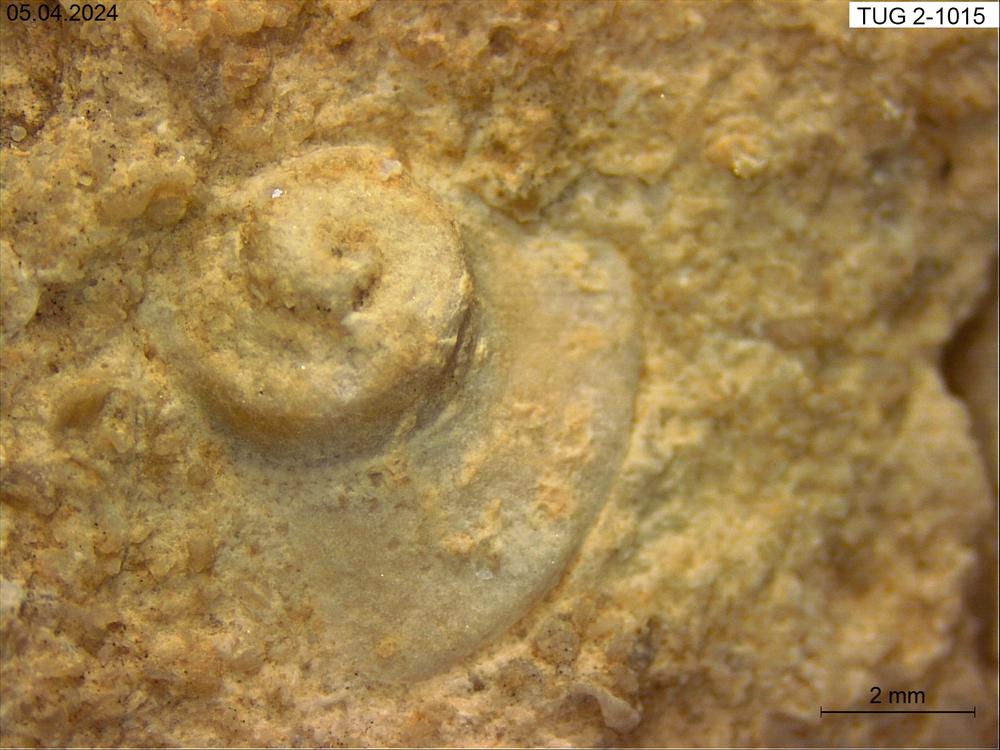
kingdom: Animalia
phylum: Mollusca
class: Gastropoda
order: Pleurotomariida
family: Planitrochidae
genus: Trochomphalus
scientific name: Trochomphalus
